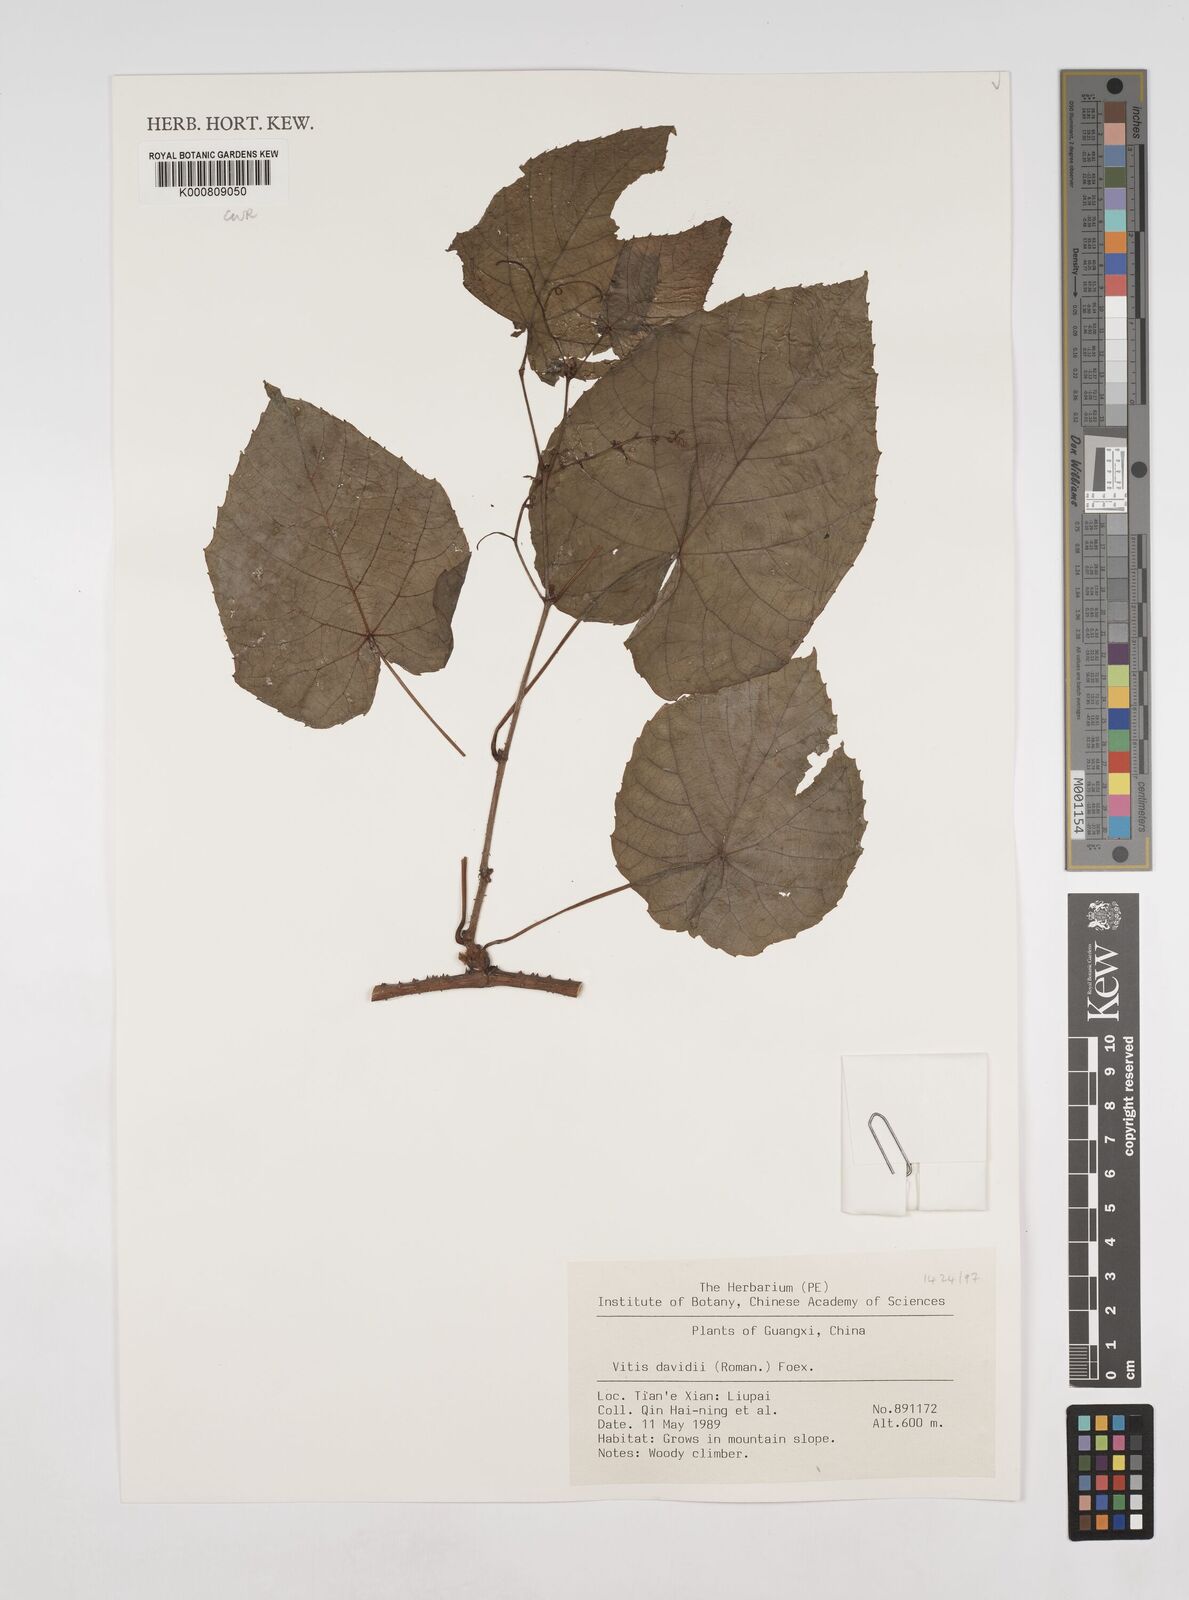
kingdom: Plantae
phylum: Tracheophyta
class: Magnoliopsida
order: Vitales
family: Vitaceae
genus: Vitis
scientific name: Vitis
